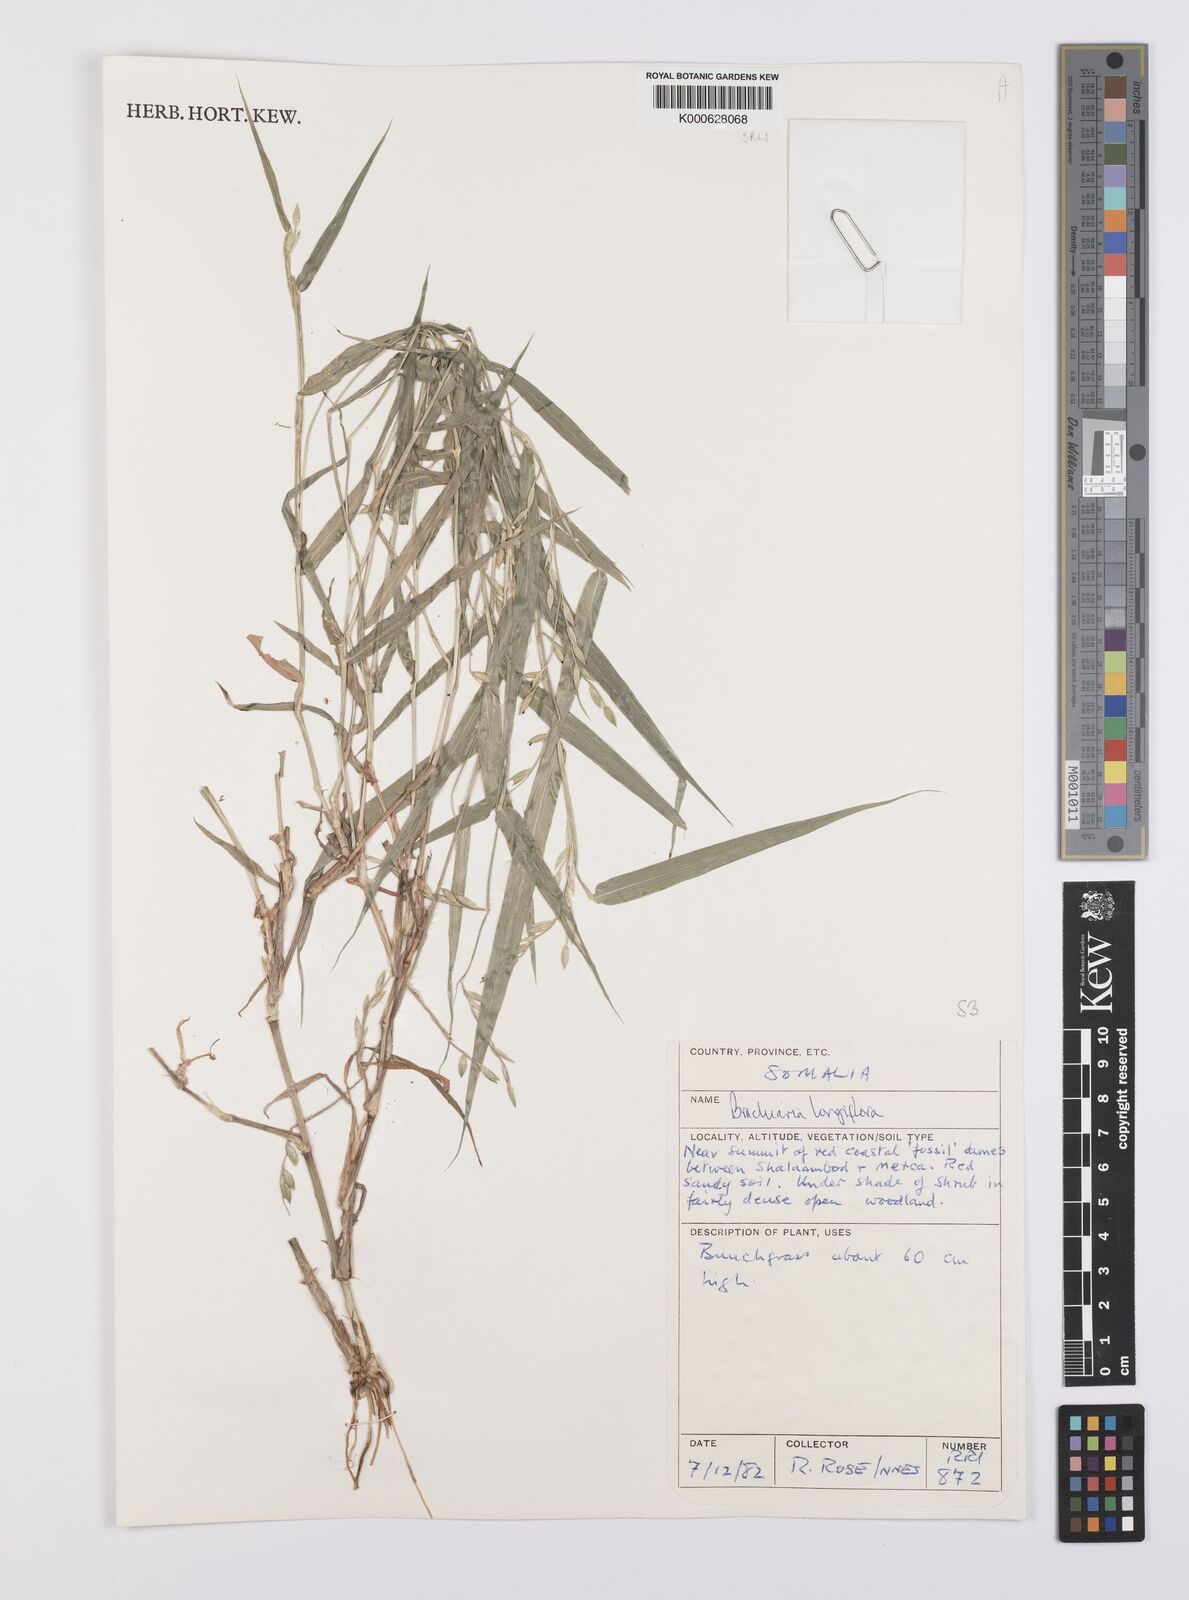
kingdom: Plantae
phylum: Tracheophyta
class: Liliopsida
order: Poales
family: Poaceae
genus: Urochloa
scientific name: Urochloa Brachiaria longiflora
